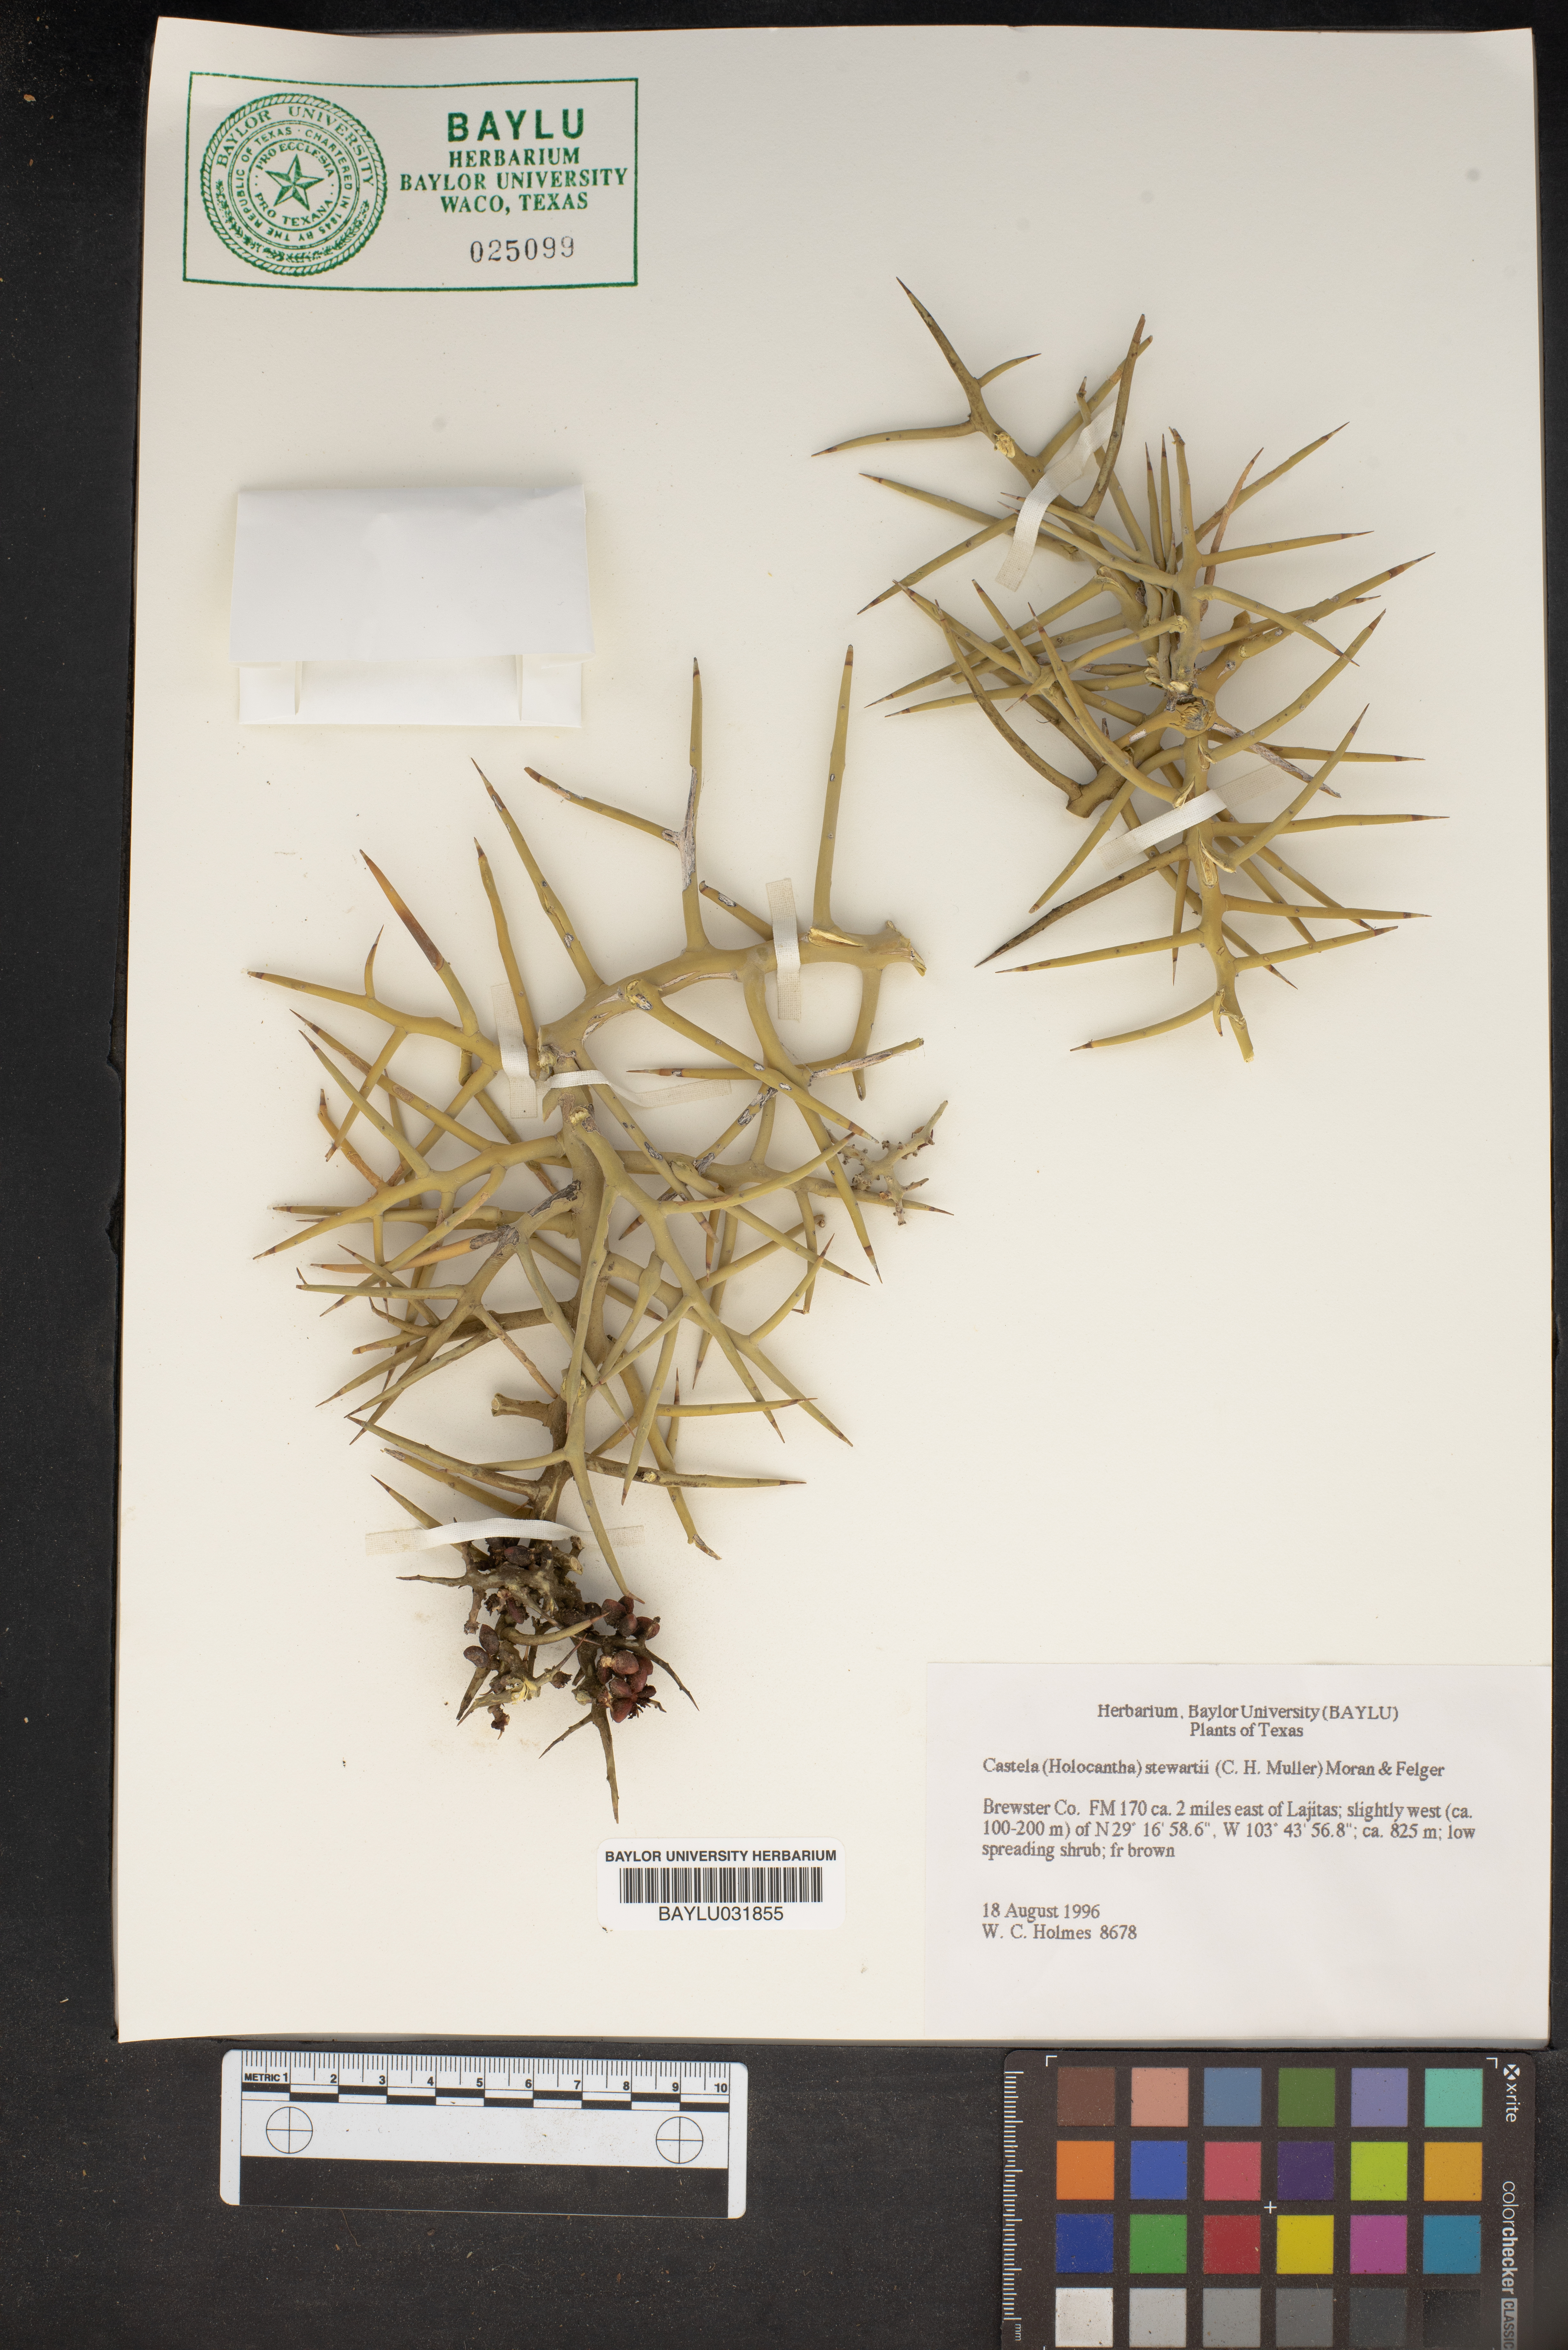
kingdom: Plantae
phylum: Tracheophyta
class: Magnoliopsida
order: Sapindales
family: Simaroubaceae
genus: Holacantha
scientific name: Holacantha stewartii
